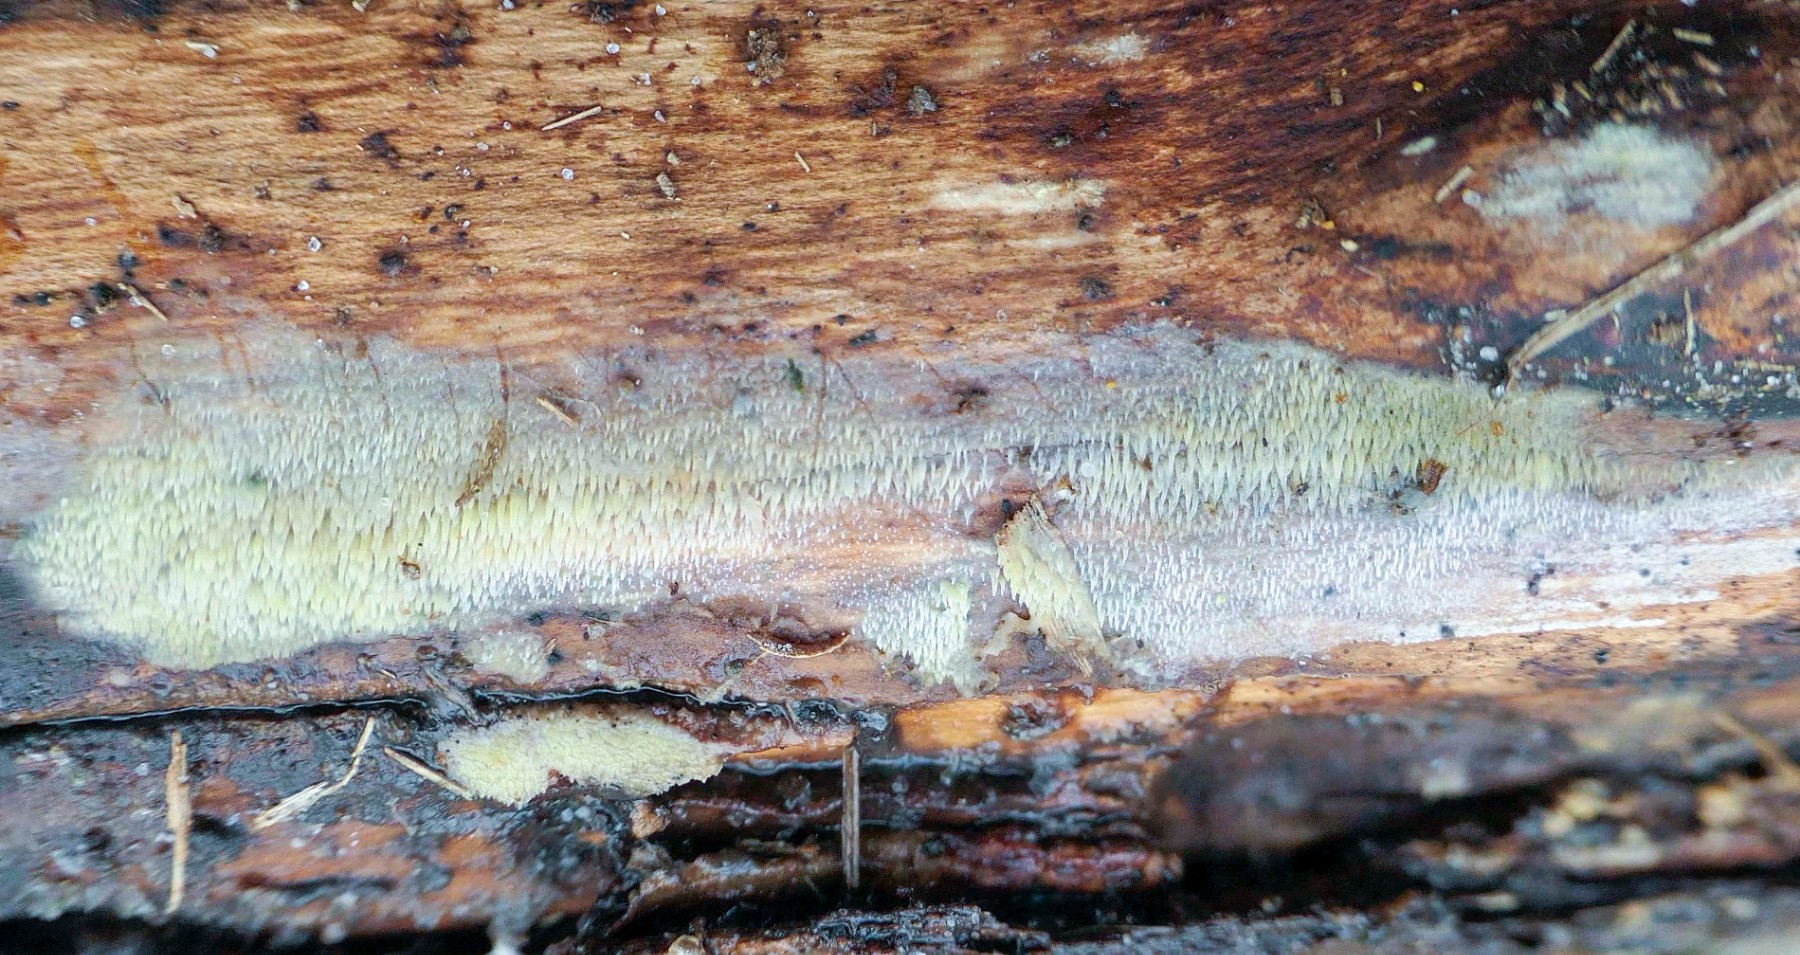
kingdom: Fungi
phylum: Basidiomycota
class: Agaricomycetes
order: Polyporales
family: Meruliaceae
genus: Mycoacia
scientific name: Mycoacia uda
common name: citrongul vokspig
